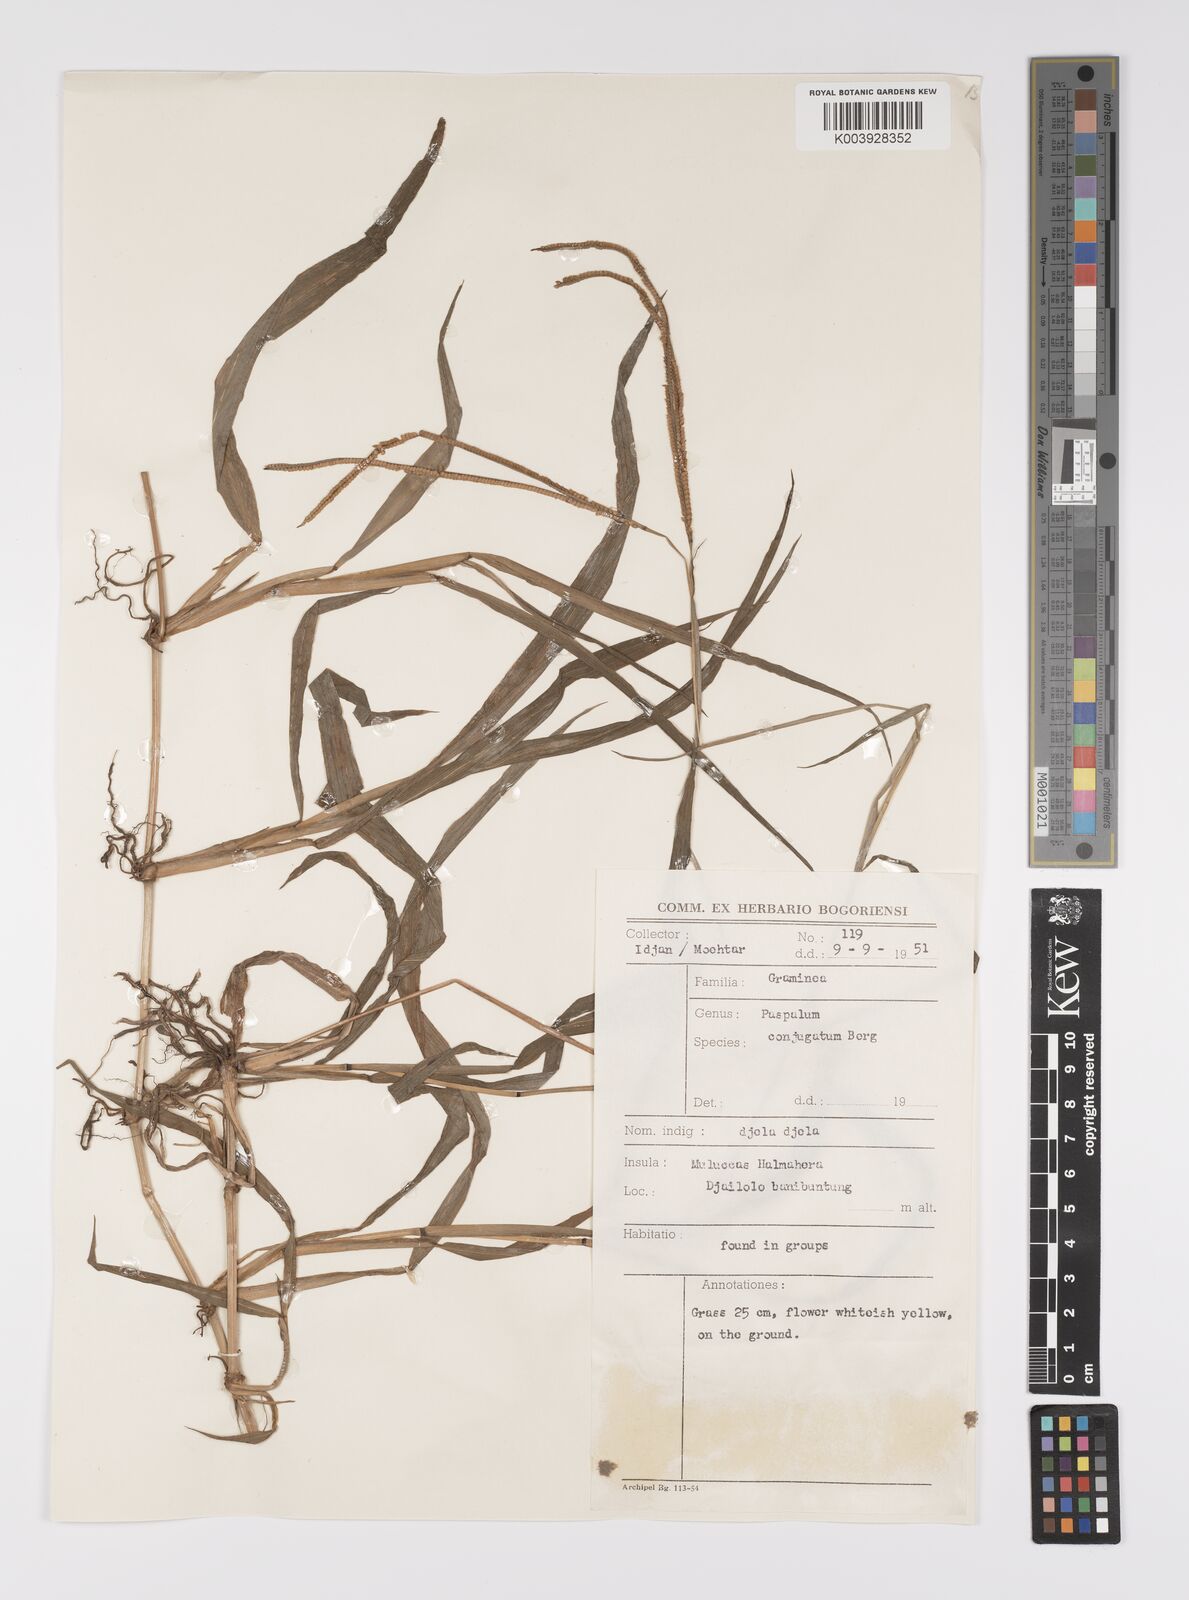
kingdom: Plantae
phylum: Tracheophyta
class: Liliopsida
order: Poales
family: Poaceae
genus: Paspalum
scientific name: Paspalum conjugatum
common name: Hilograss
